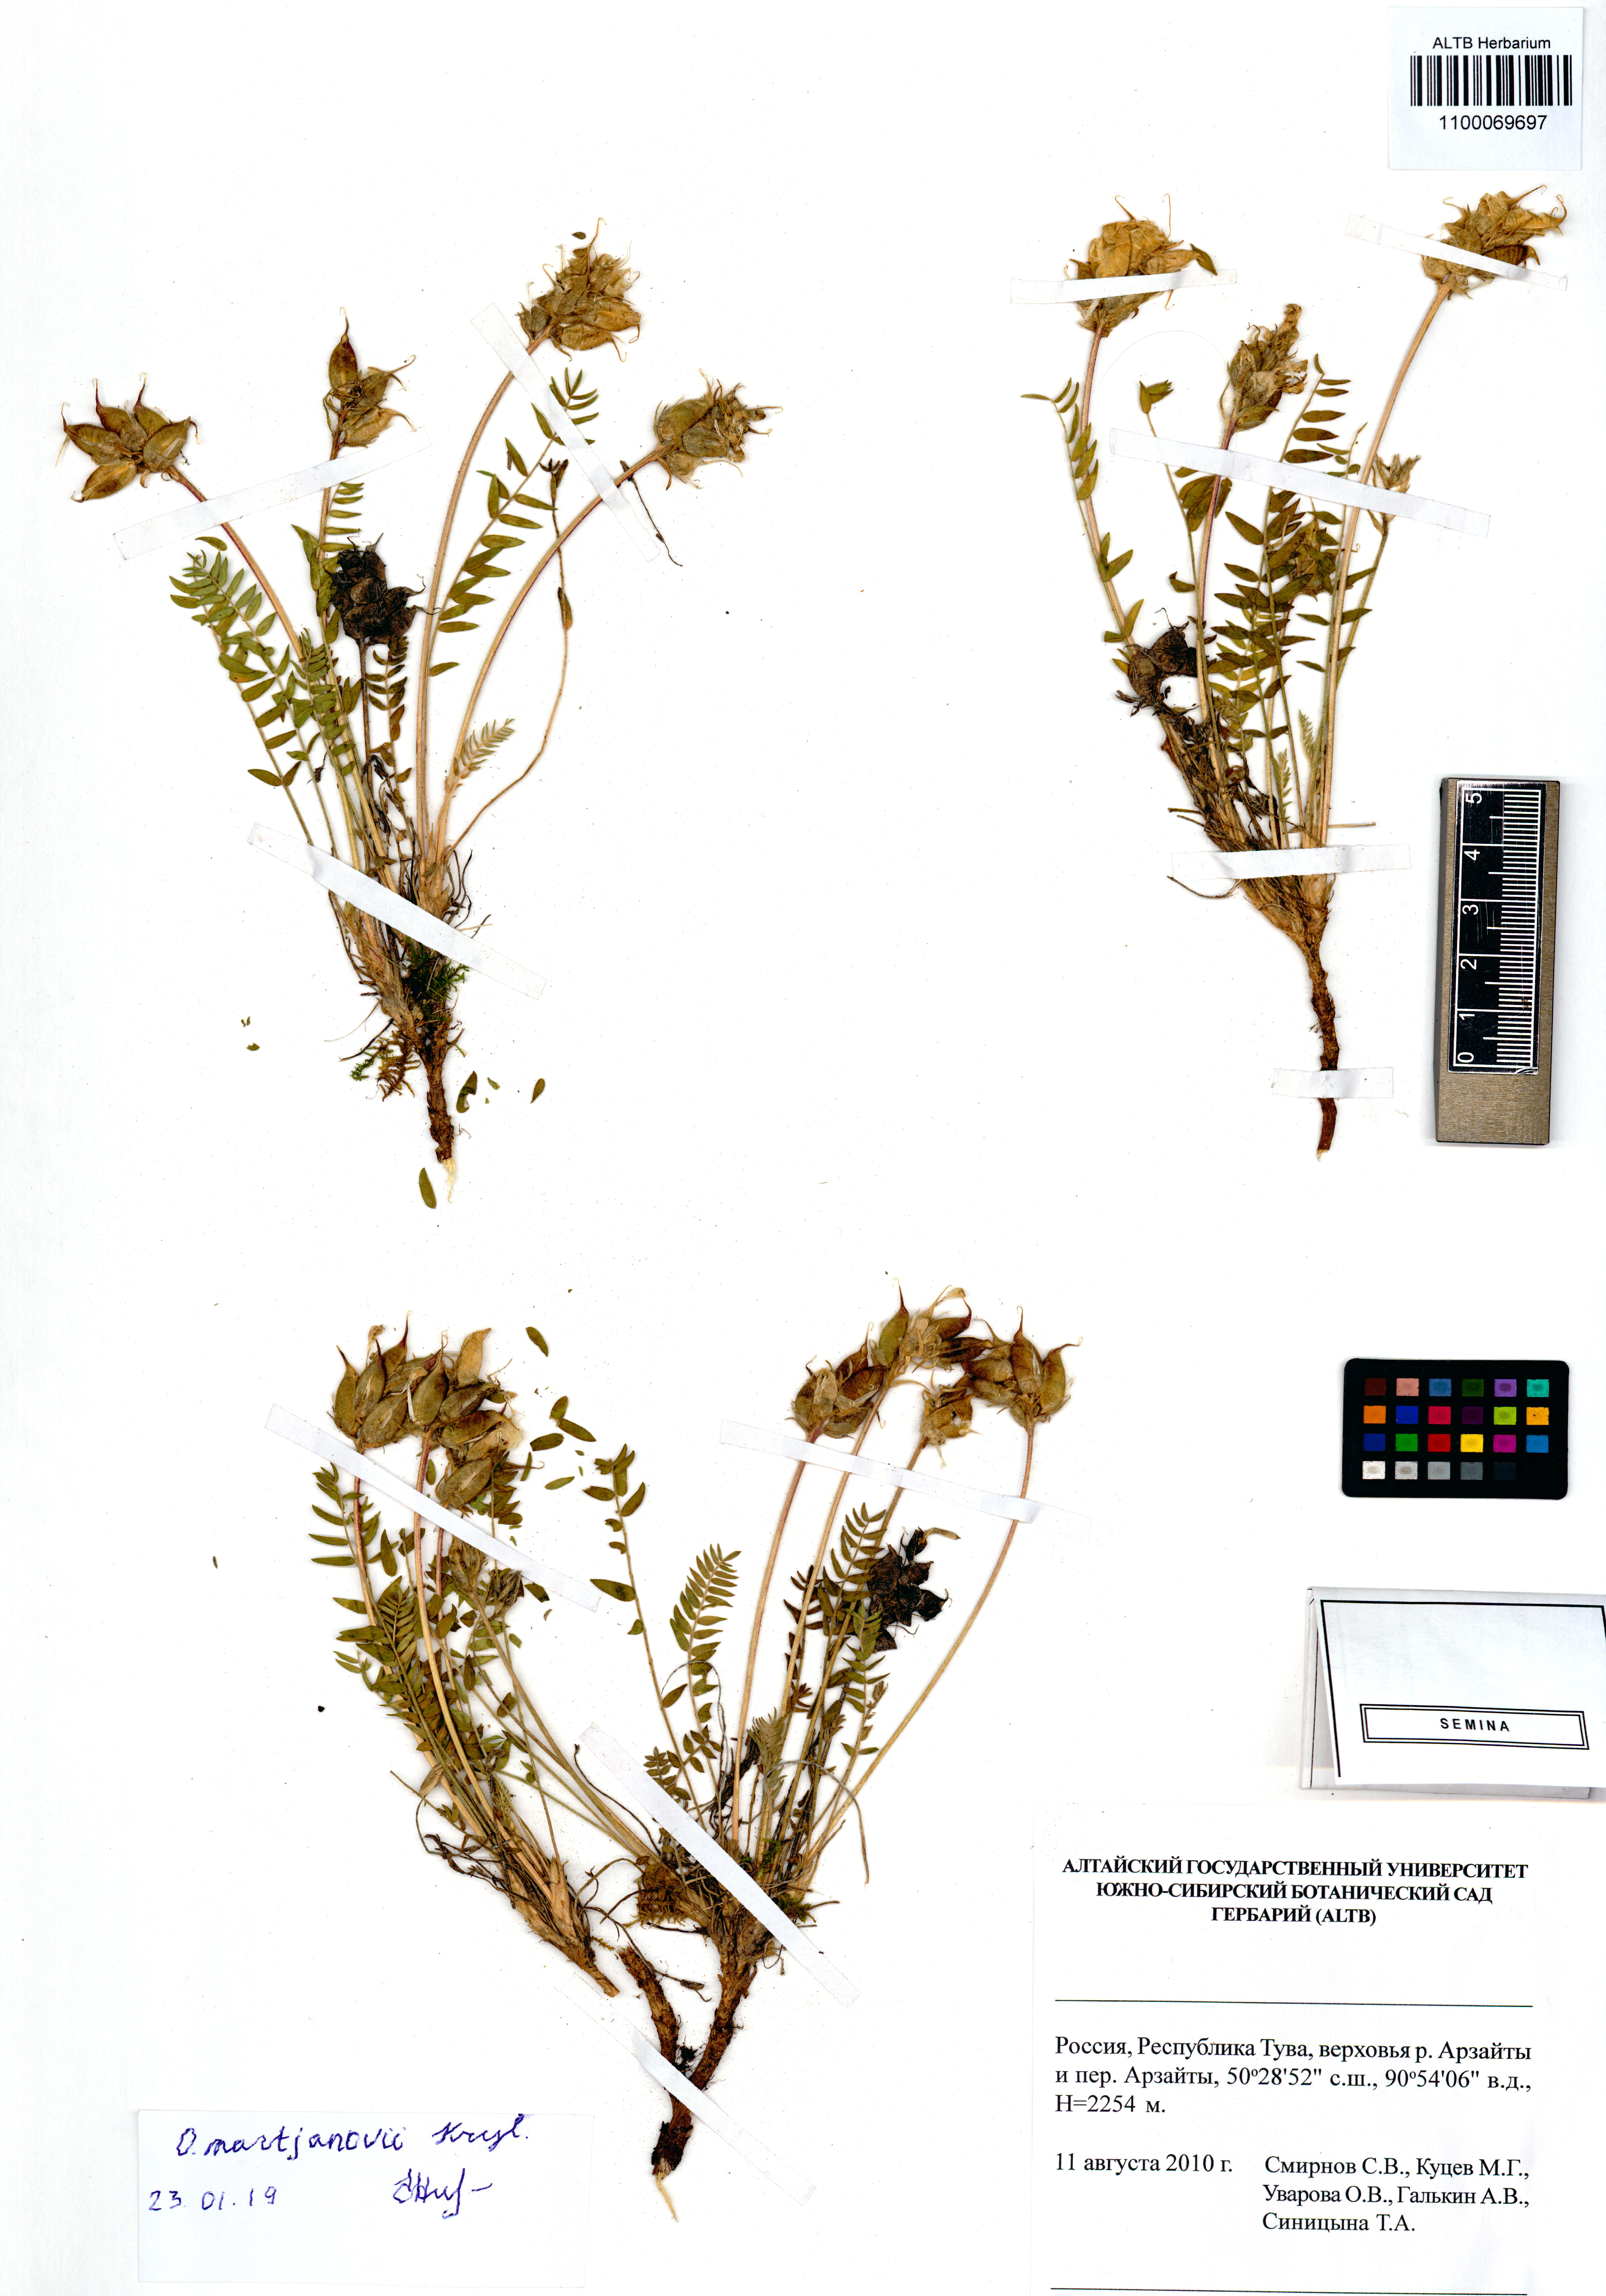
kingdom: Plantae
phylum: Tracheophyta
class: Magnoliopsida
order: Fabales
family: Fabaceae
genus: Oxytropis
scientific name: Oxytropis martjanovii
